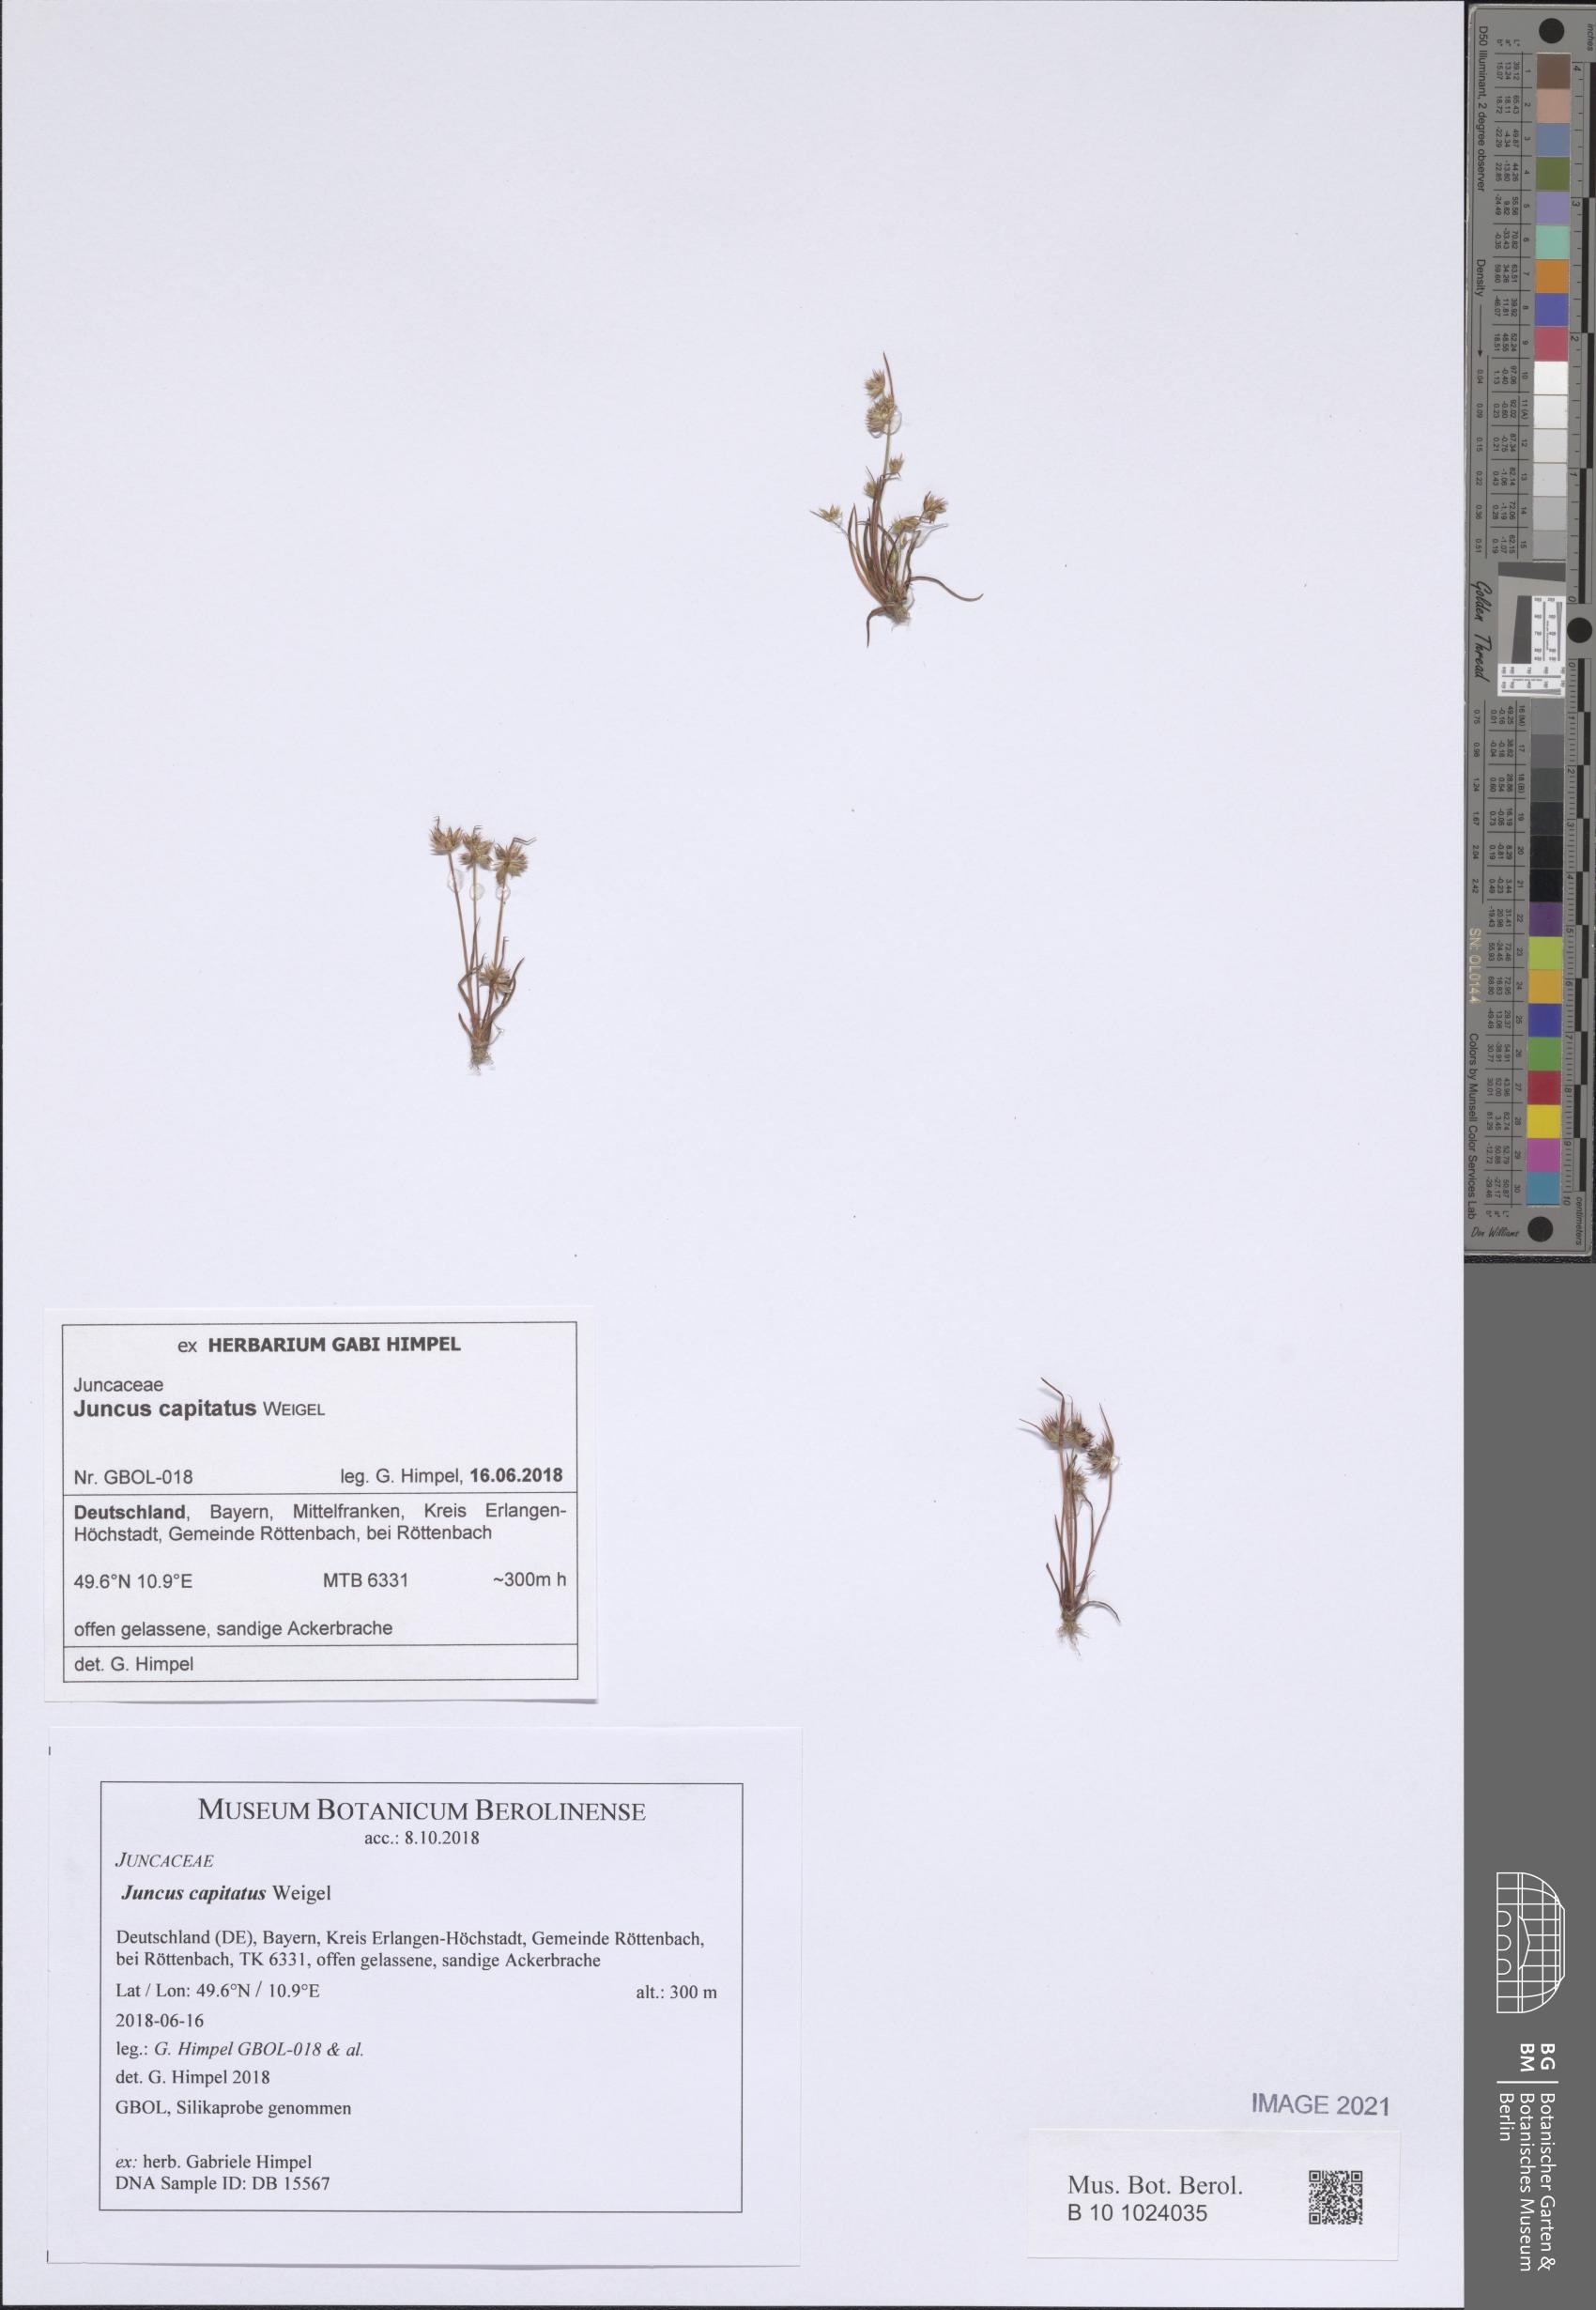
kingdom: Plantae
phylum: Tracheophyta
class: Liliopsida
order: Poales
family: Juncaceae
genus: Juncus
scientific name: Juncus capitatus
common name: Dwarf rush
